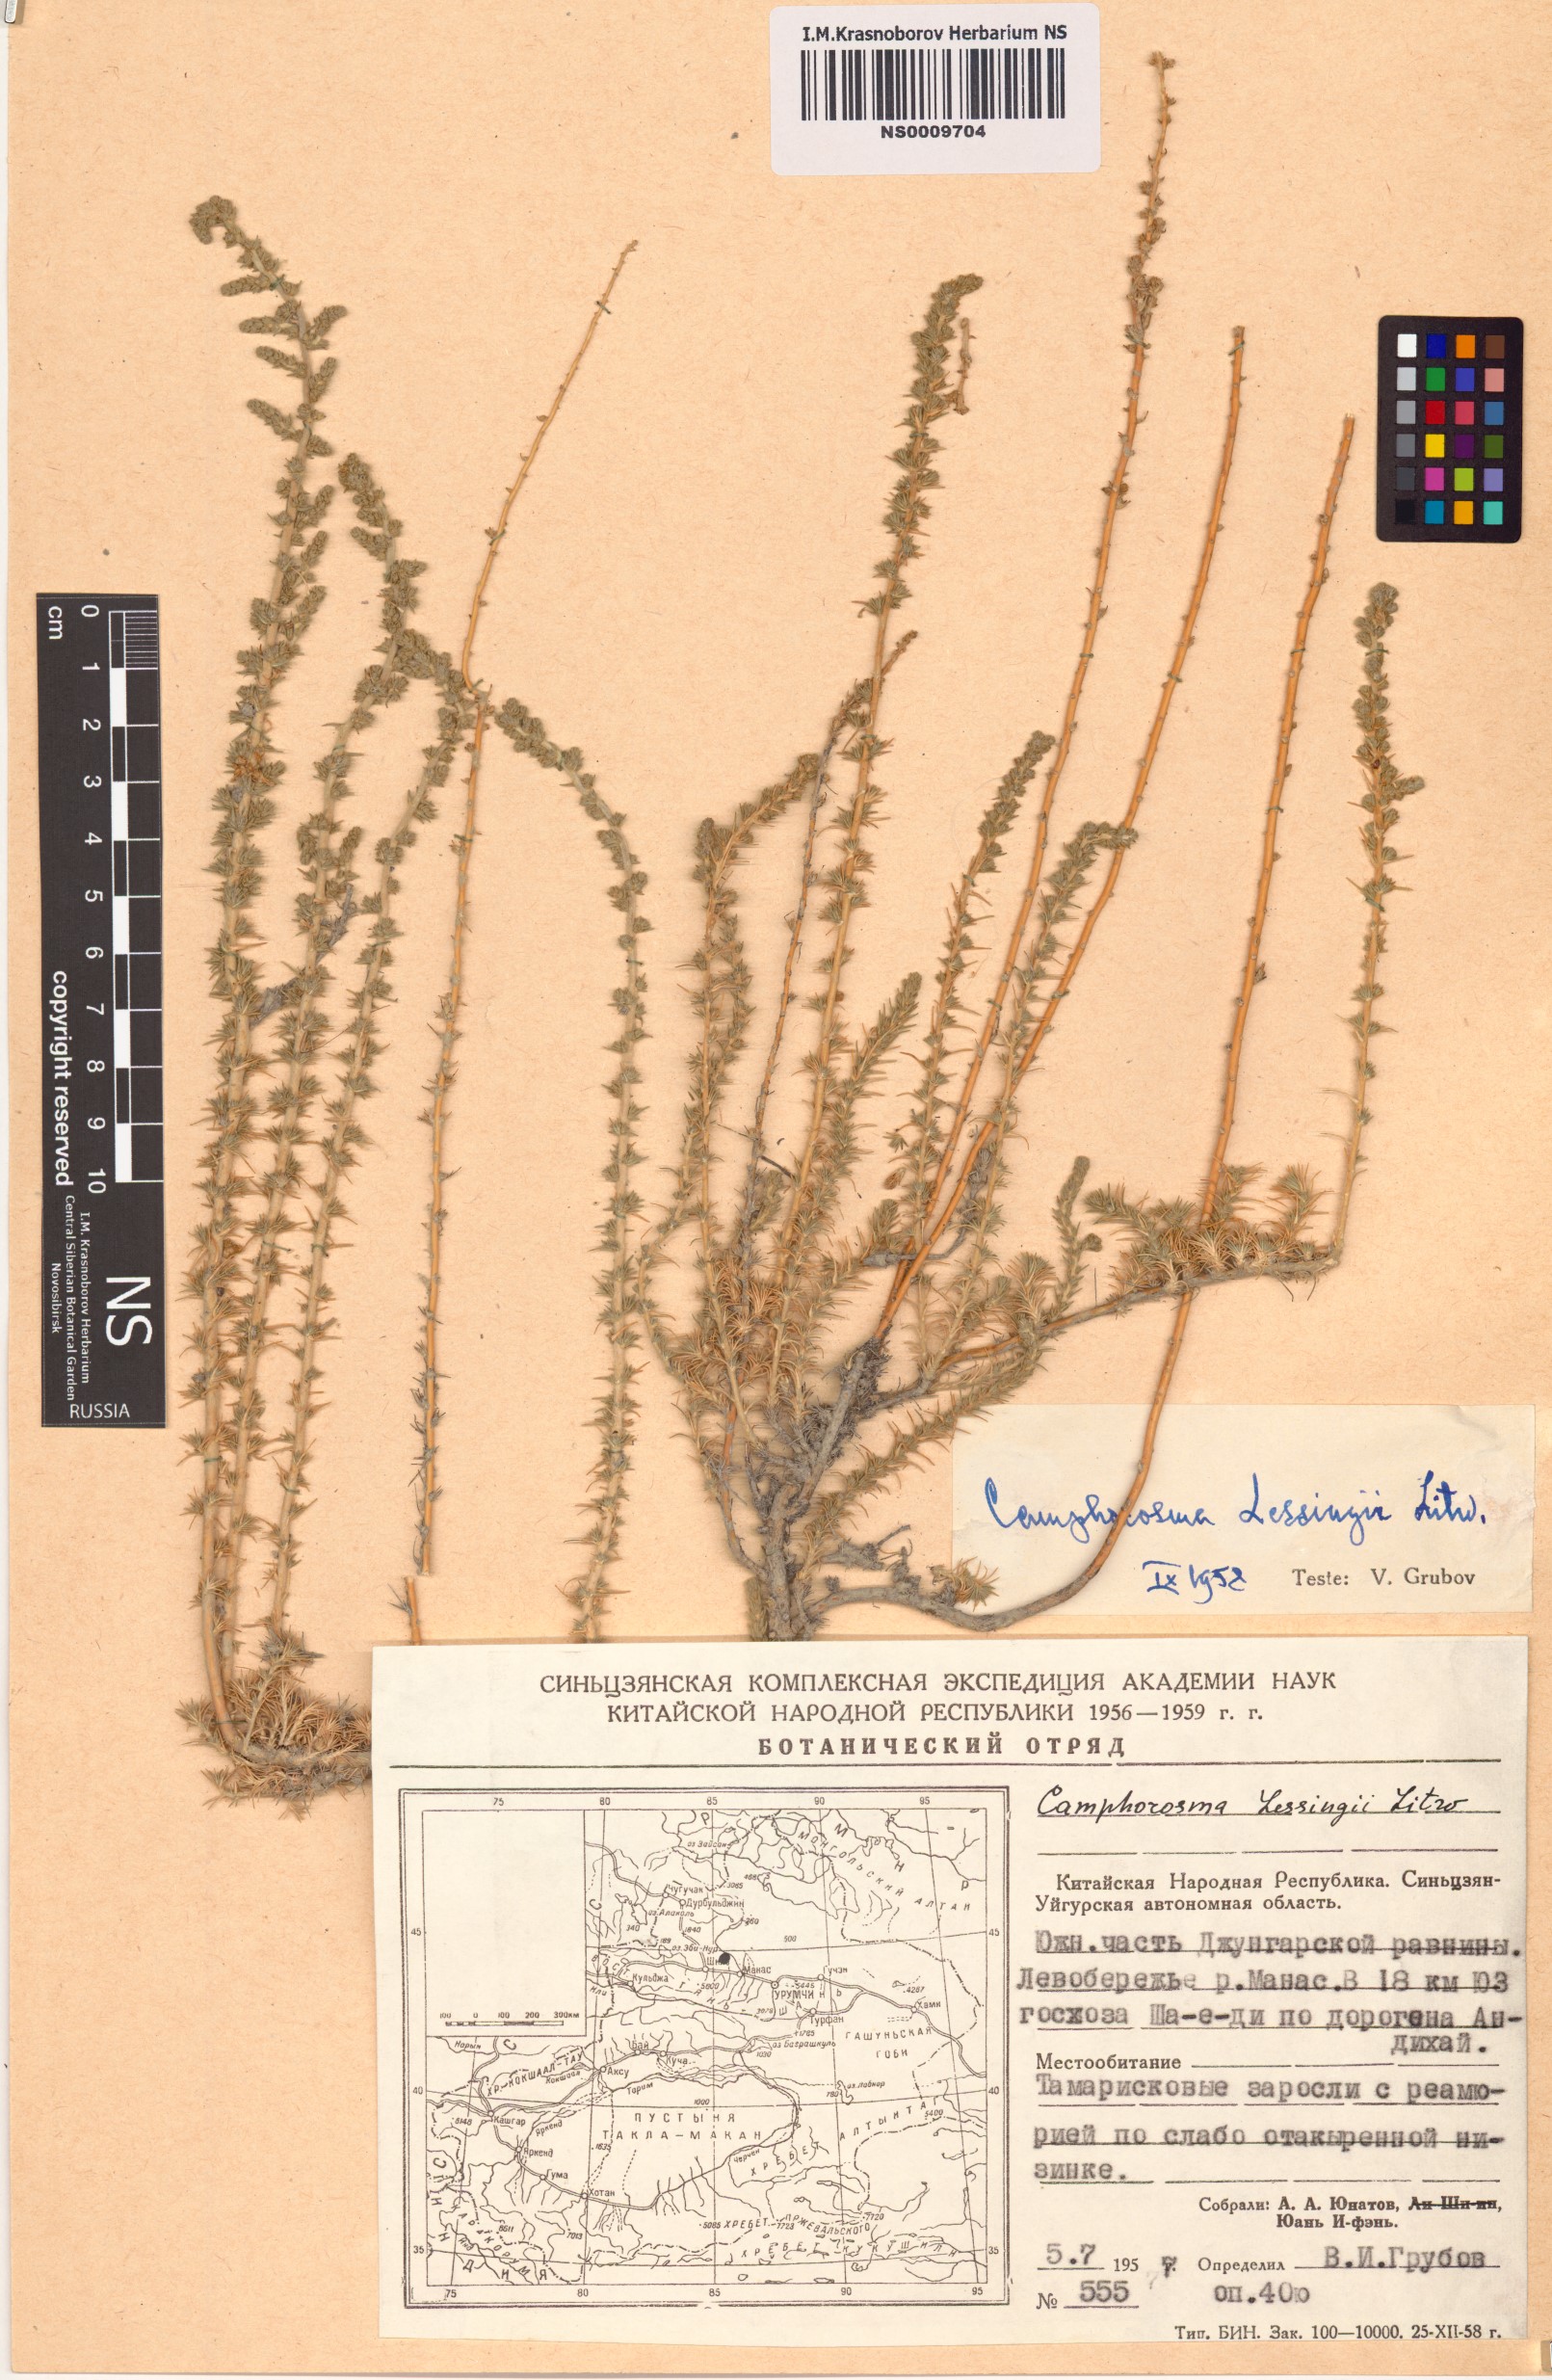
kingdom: Plantae
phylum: Tracheophyta
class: Magnoliopsida
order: Caryophyllales
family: Amaranthaceae
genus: Camphorosma
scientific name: Camphorosma monspeliaca
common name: Camphorfume
